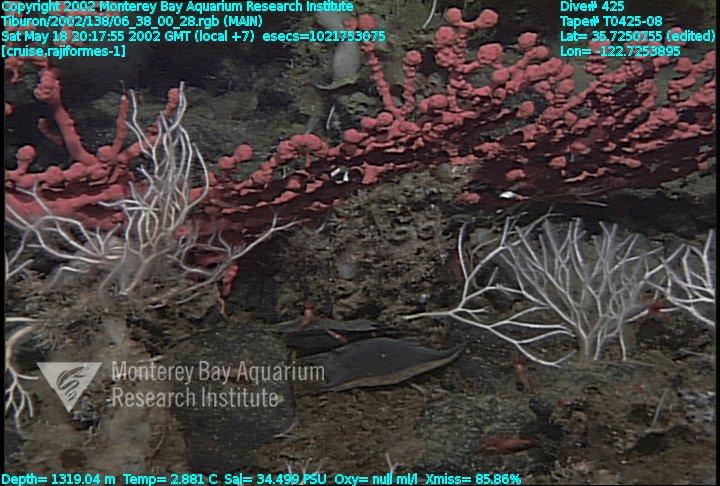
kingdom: Animalia
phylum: Porifera
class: Demospongiae
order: Poecilosclerida
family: Cladorhizidae
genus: Asbestopluma
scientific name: Asbestopluma monticola
